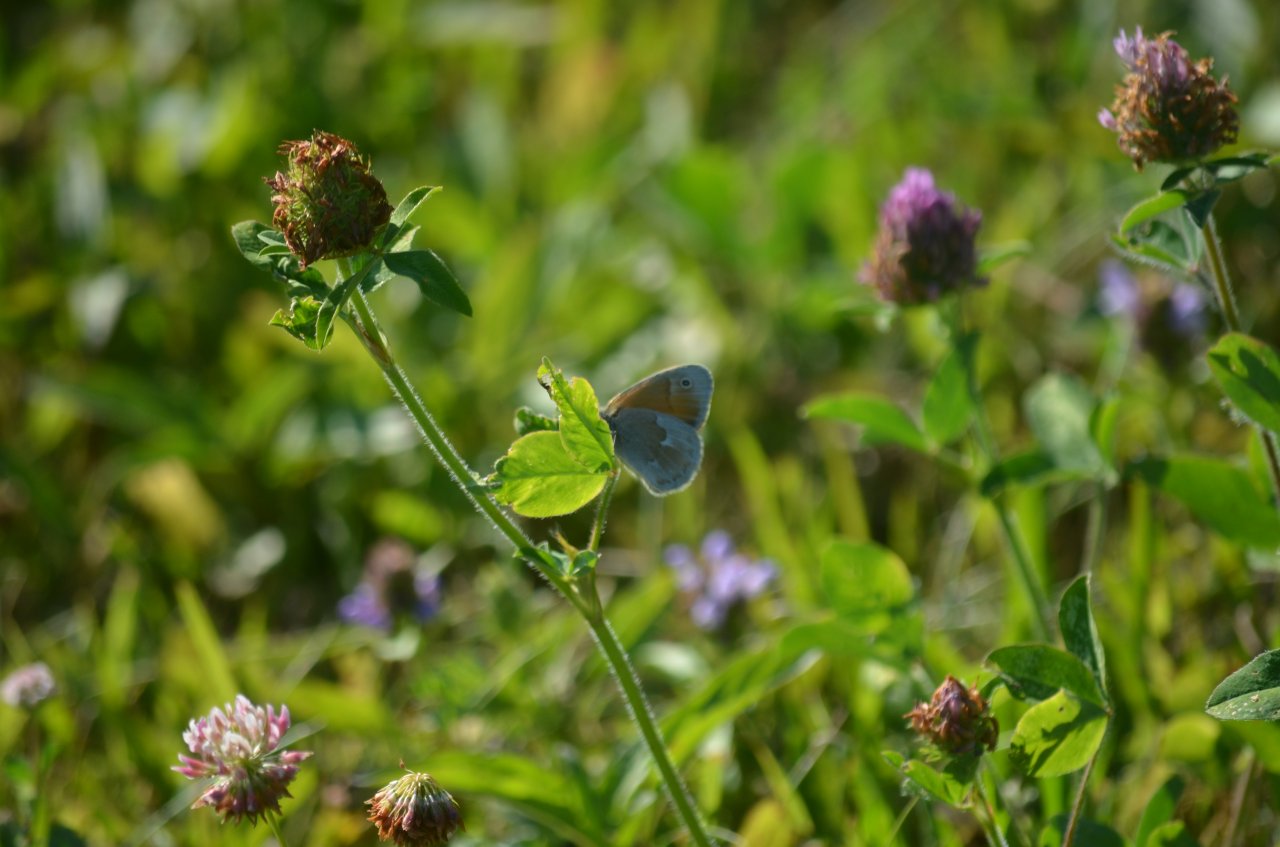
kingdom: Animalia
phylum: Arthropoda
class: Insecta
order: Lepidoptera
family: Nymphalidae
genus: Coenonympha
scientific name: Coenonympha tullia
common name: Large Heath
